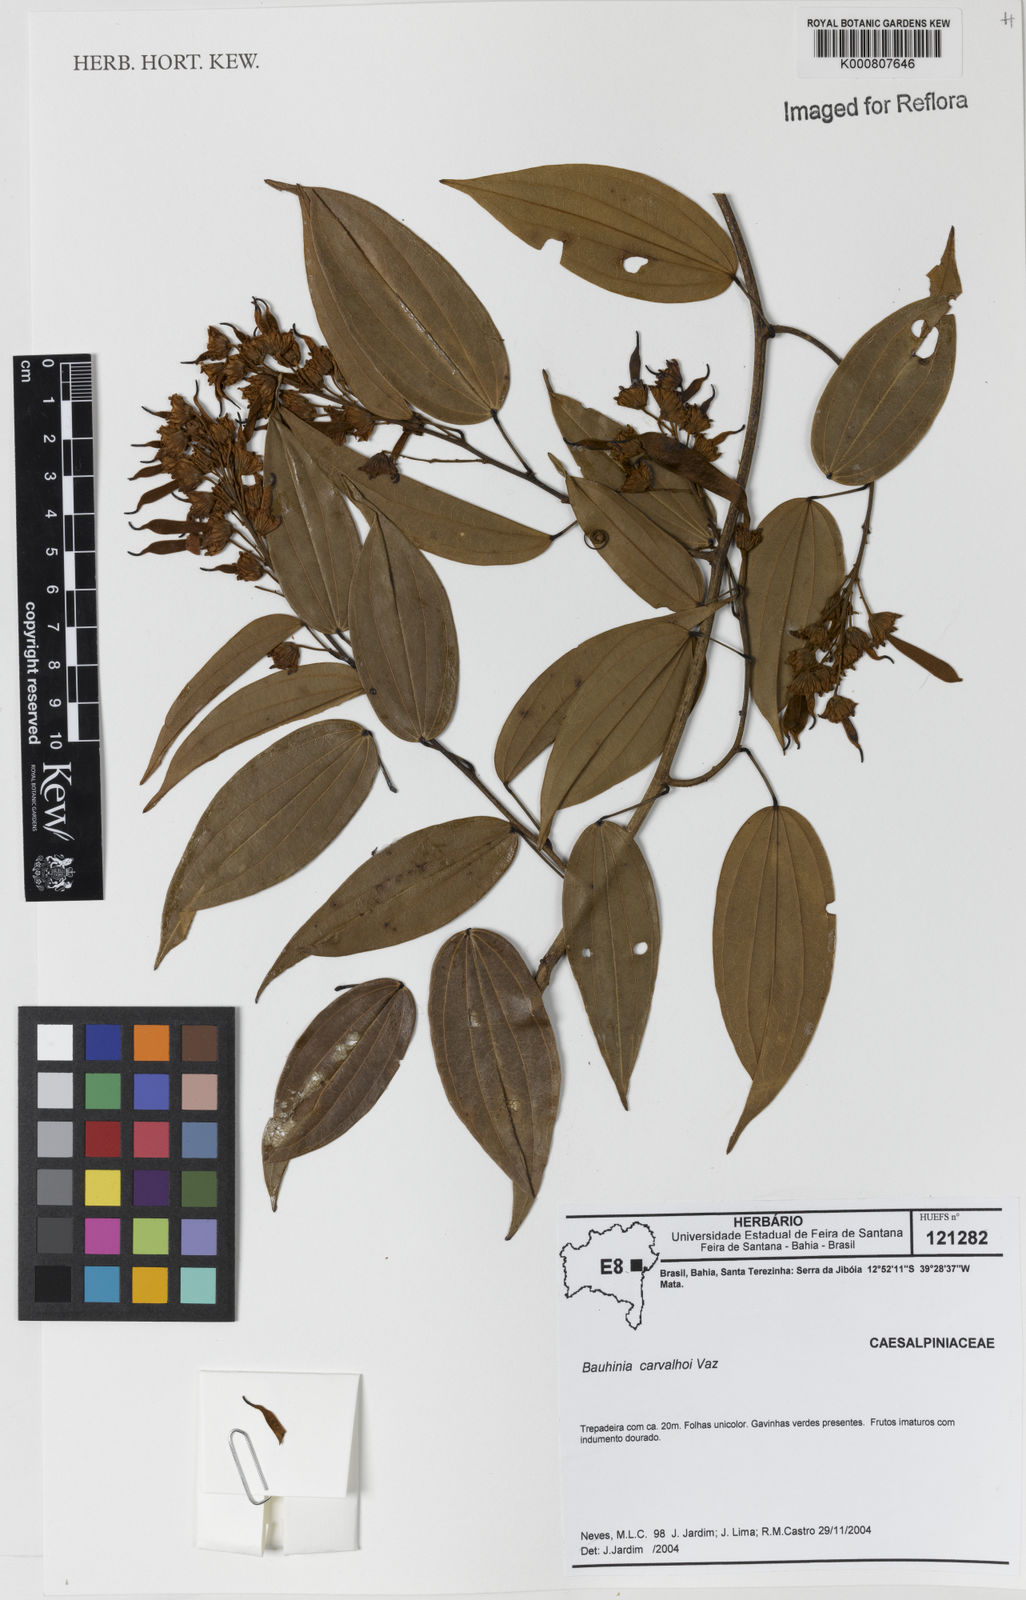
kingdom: Plantae
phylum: Tracheophyta
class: Magnoliopsida
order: Fabales
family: Fabaceae
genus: Schnella
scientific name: Schnella carvalhoi
